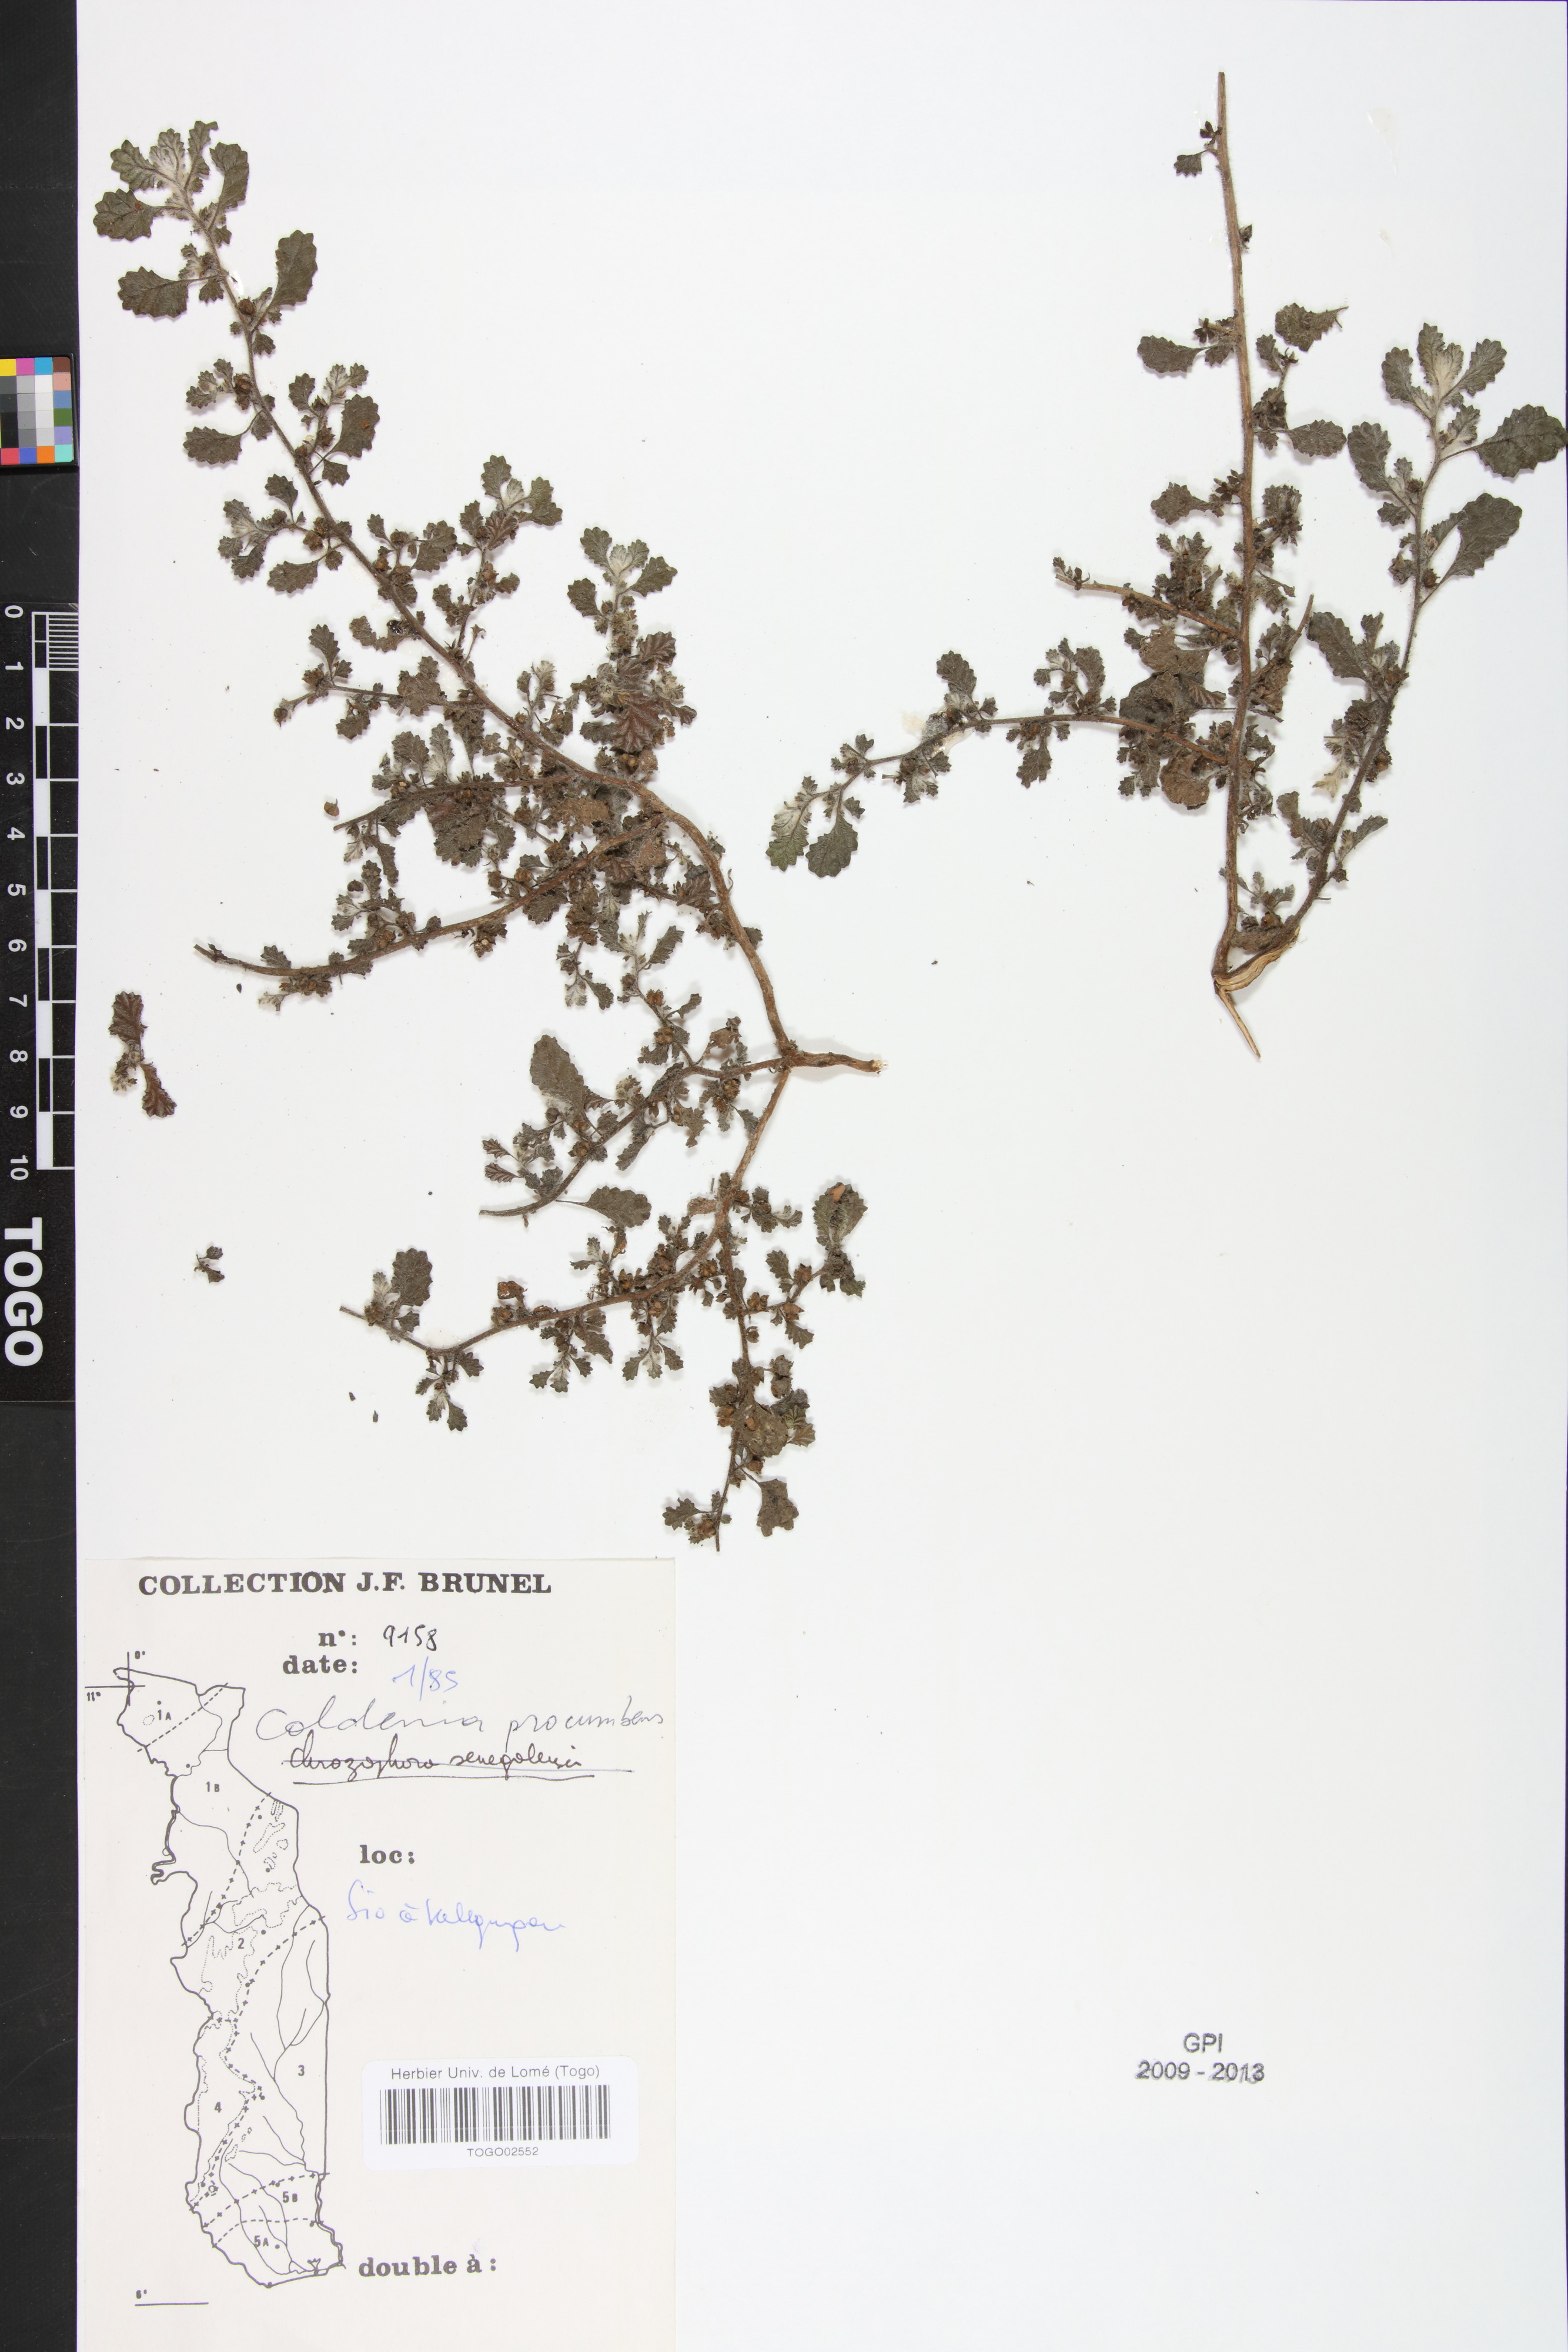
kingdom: Plantae
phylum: Tracheophyta
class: Magnoliopsida
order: Boraginales
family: Coldeniaceae
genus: Coldenia
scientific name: Coldenia procumbens
